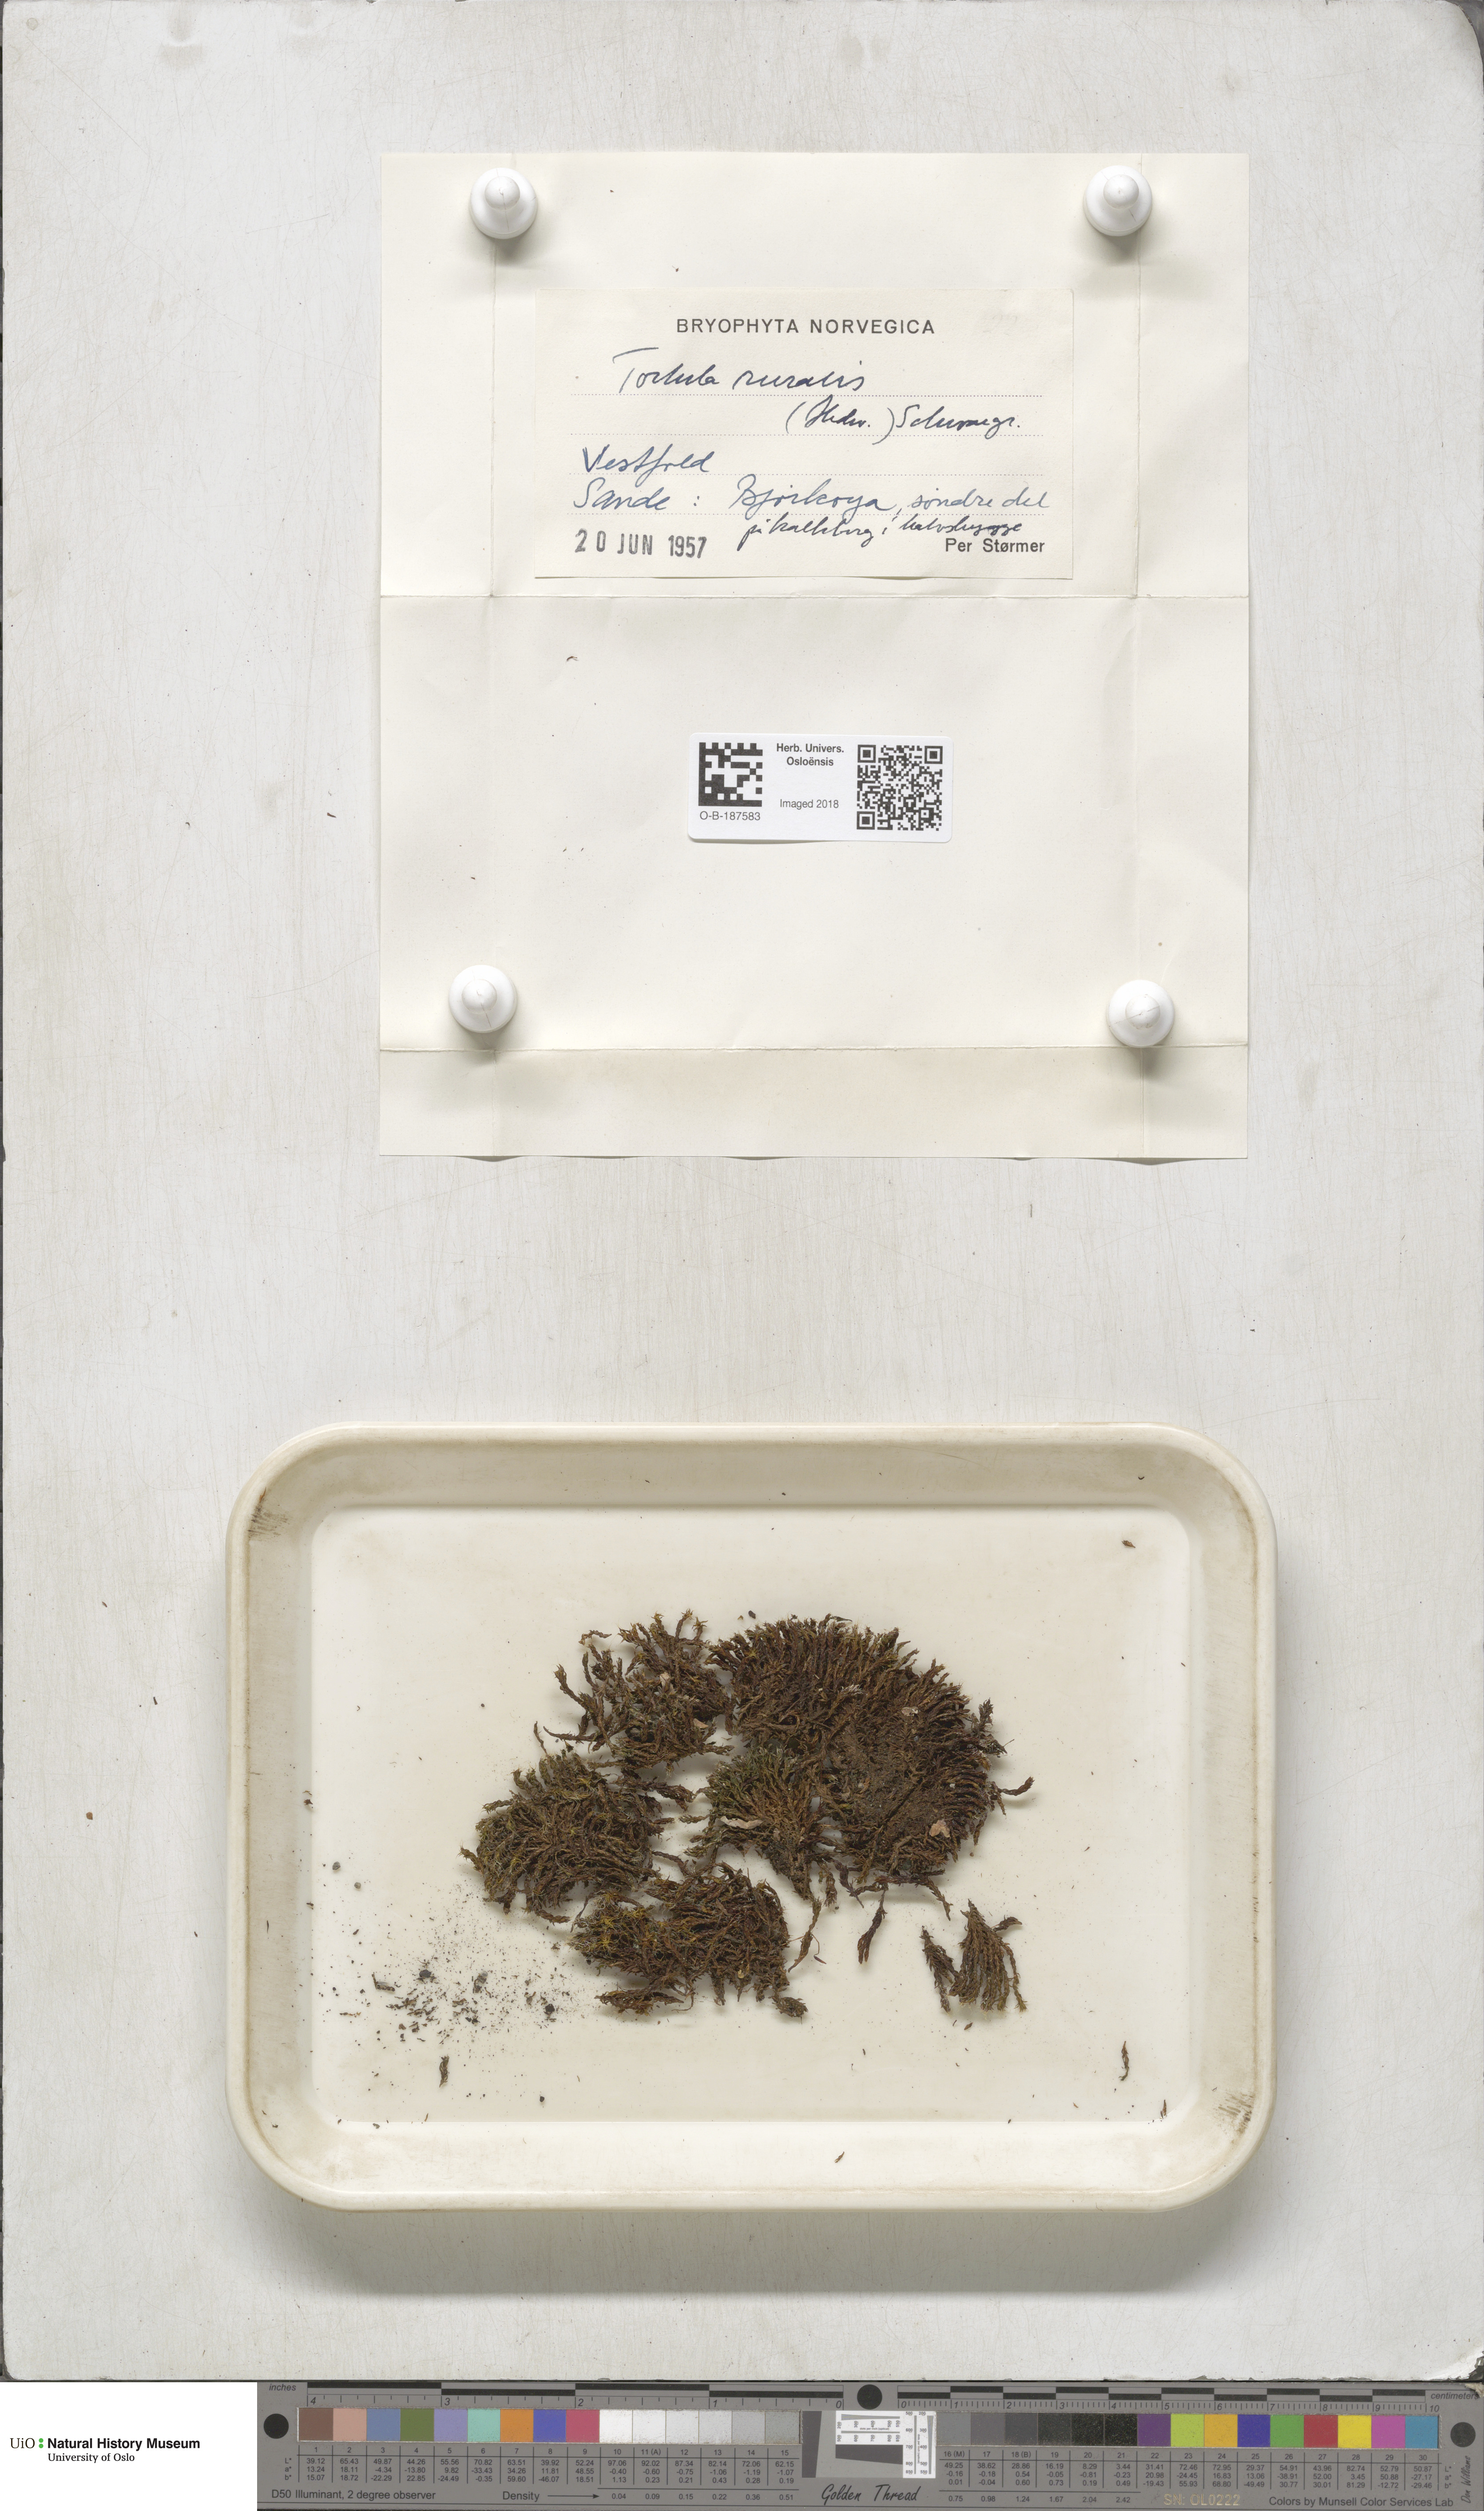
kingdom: Plantae
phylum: Bryophyta
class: Bryopsida
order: Pottiales
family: Pottiaceae
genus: Syntrichia
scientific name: Syntrichia ruralis
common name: Sidewalk screw moss
